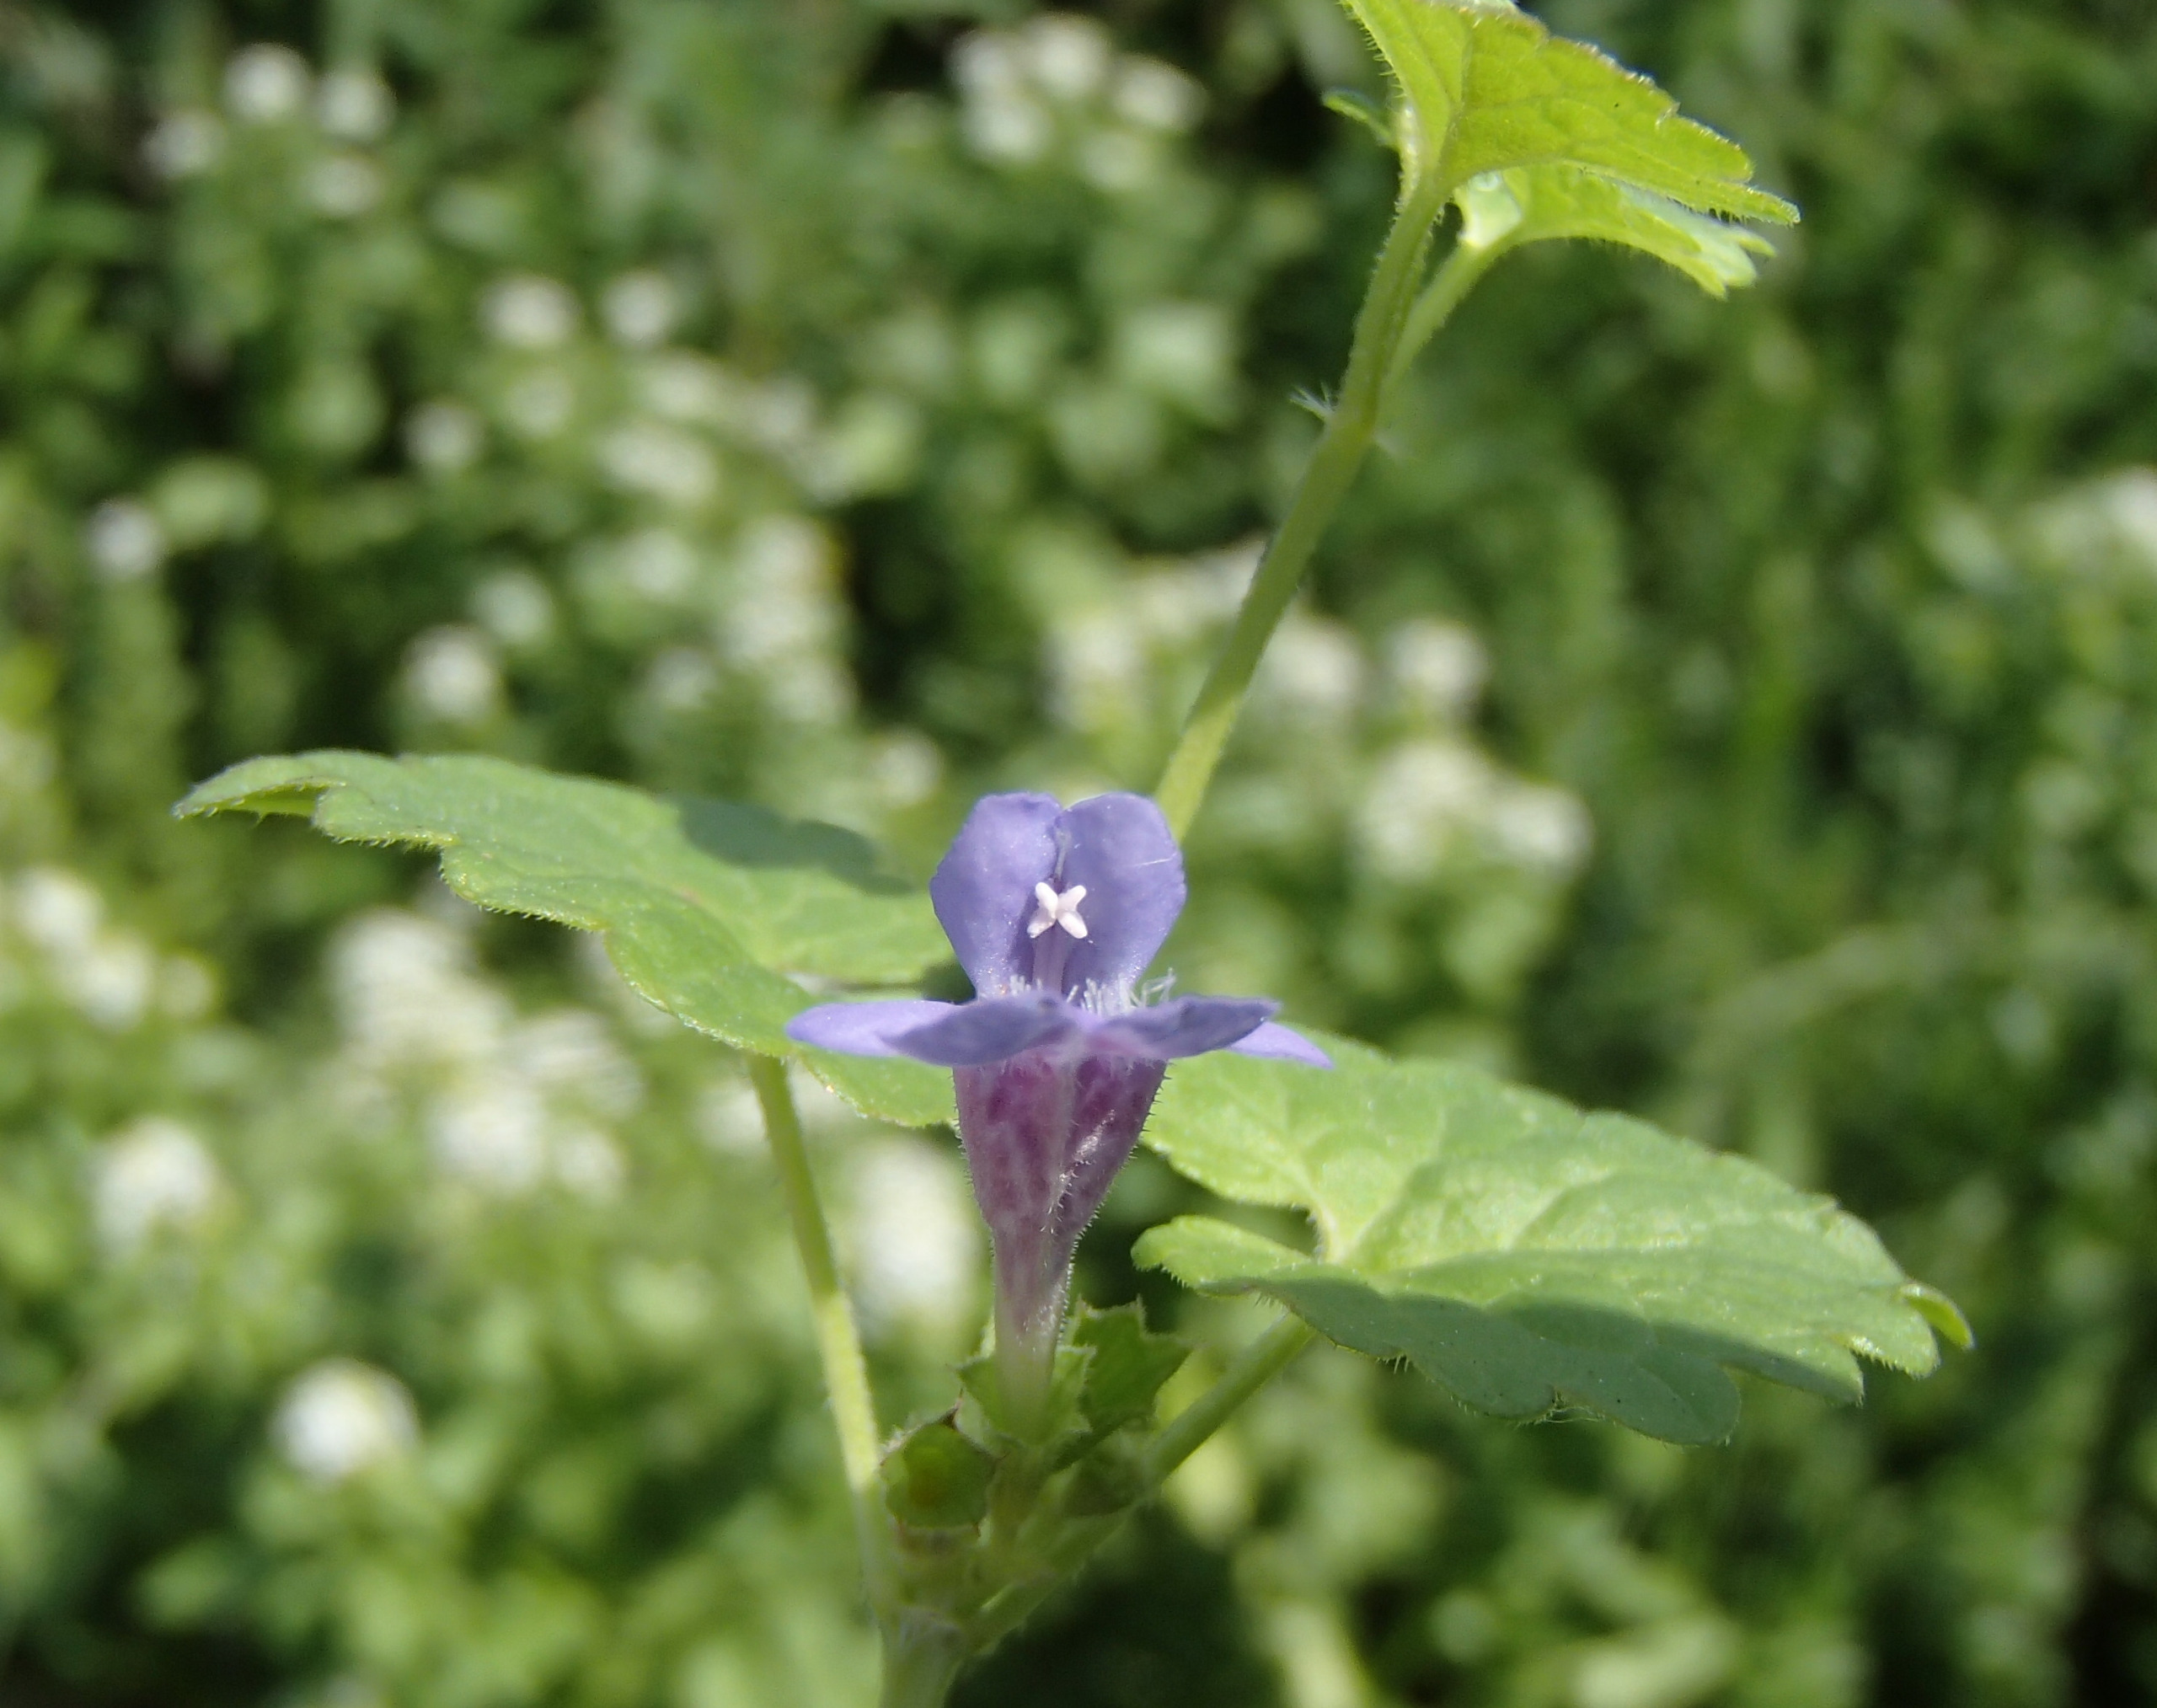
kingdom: Plantae
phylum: Tracheophyta
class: Magnoliopsida
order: Lamiales
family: Lamiaceae
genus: Glechoma
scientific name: Glechoma hederacea
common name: Korsknap
